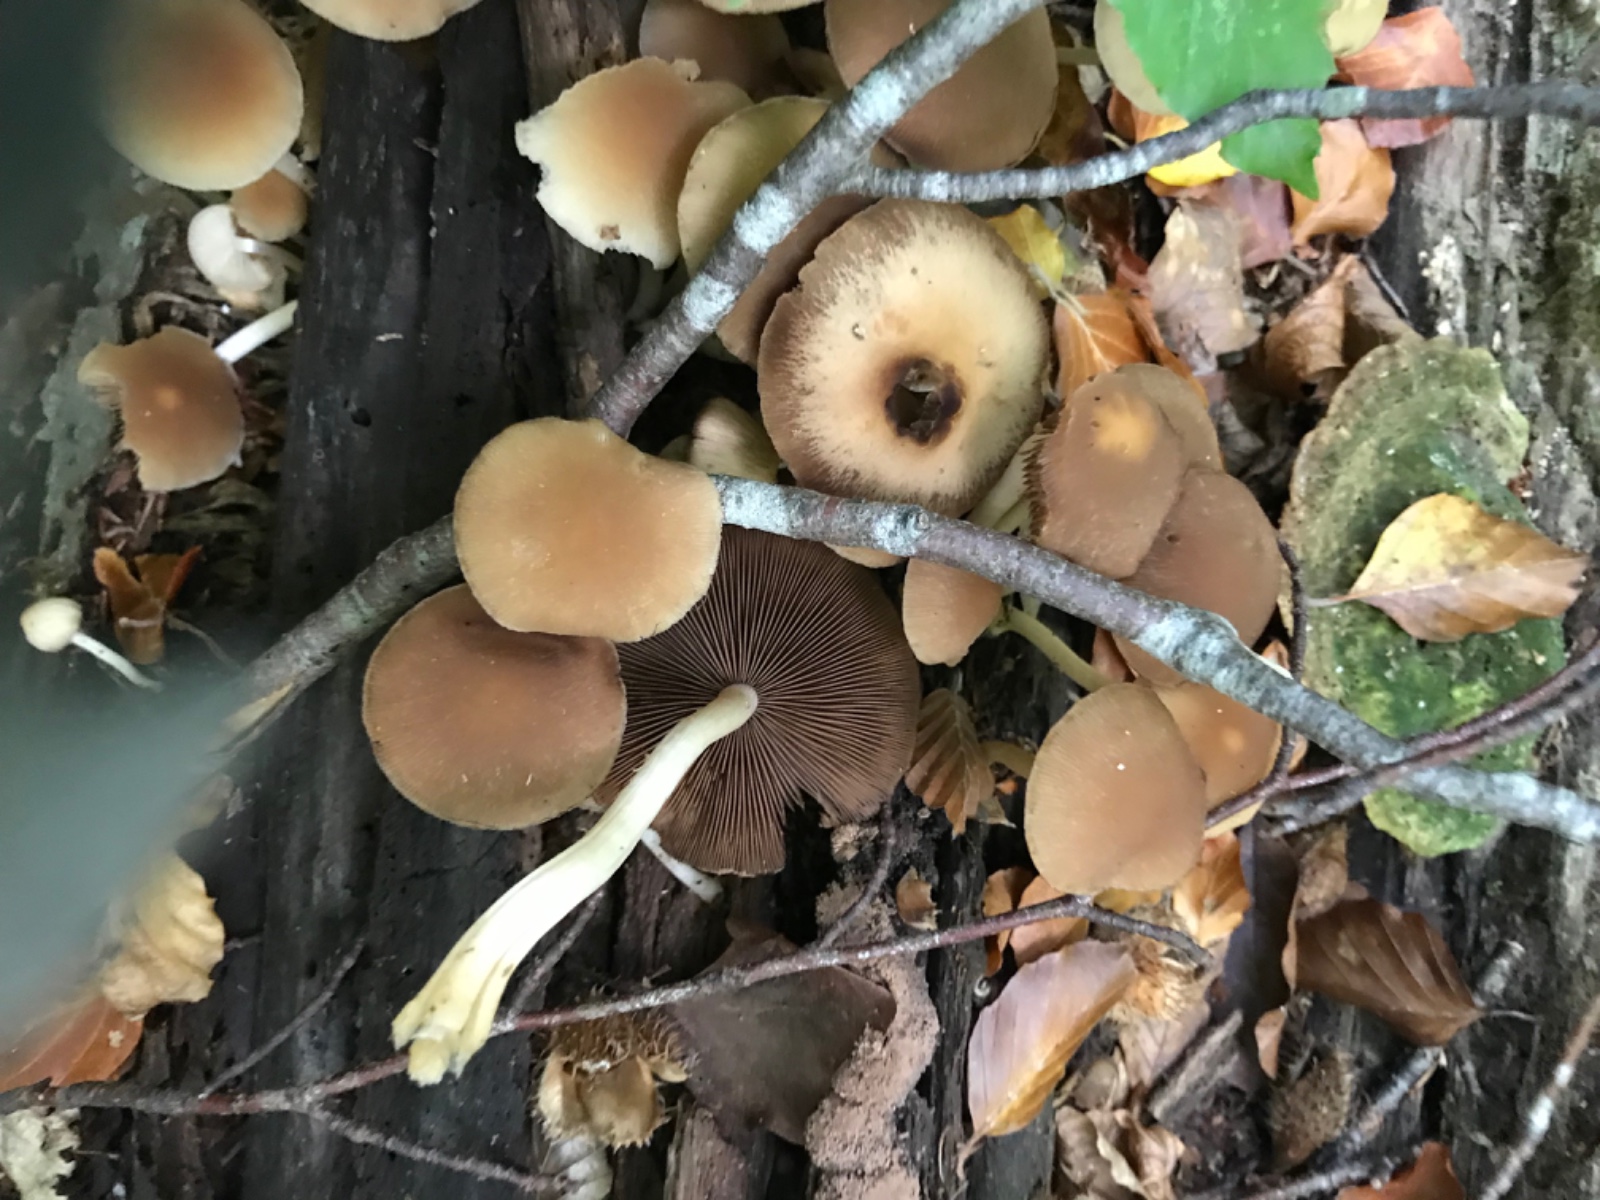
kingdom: Fungi
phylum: Basidiomycota
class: Agaricomycetes
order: Agaricales
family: Psathyrellaceae
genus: Psathyrella
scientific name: Psathyrella piluliformis
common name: lysstokket mørkhat
